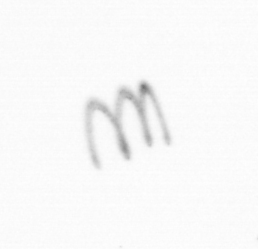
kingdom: Chromista
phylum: Ochrophyta
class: Bacillariophyceae
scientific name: Bacillariophyceae
